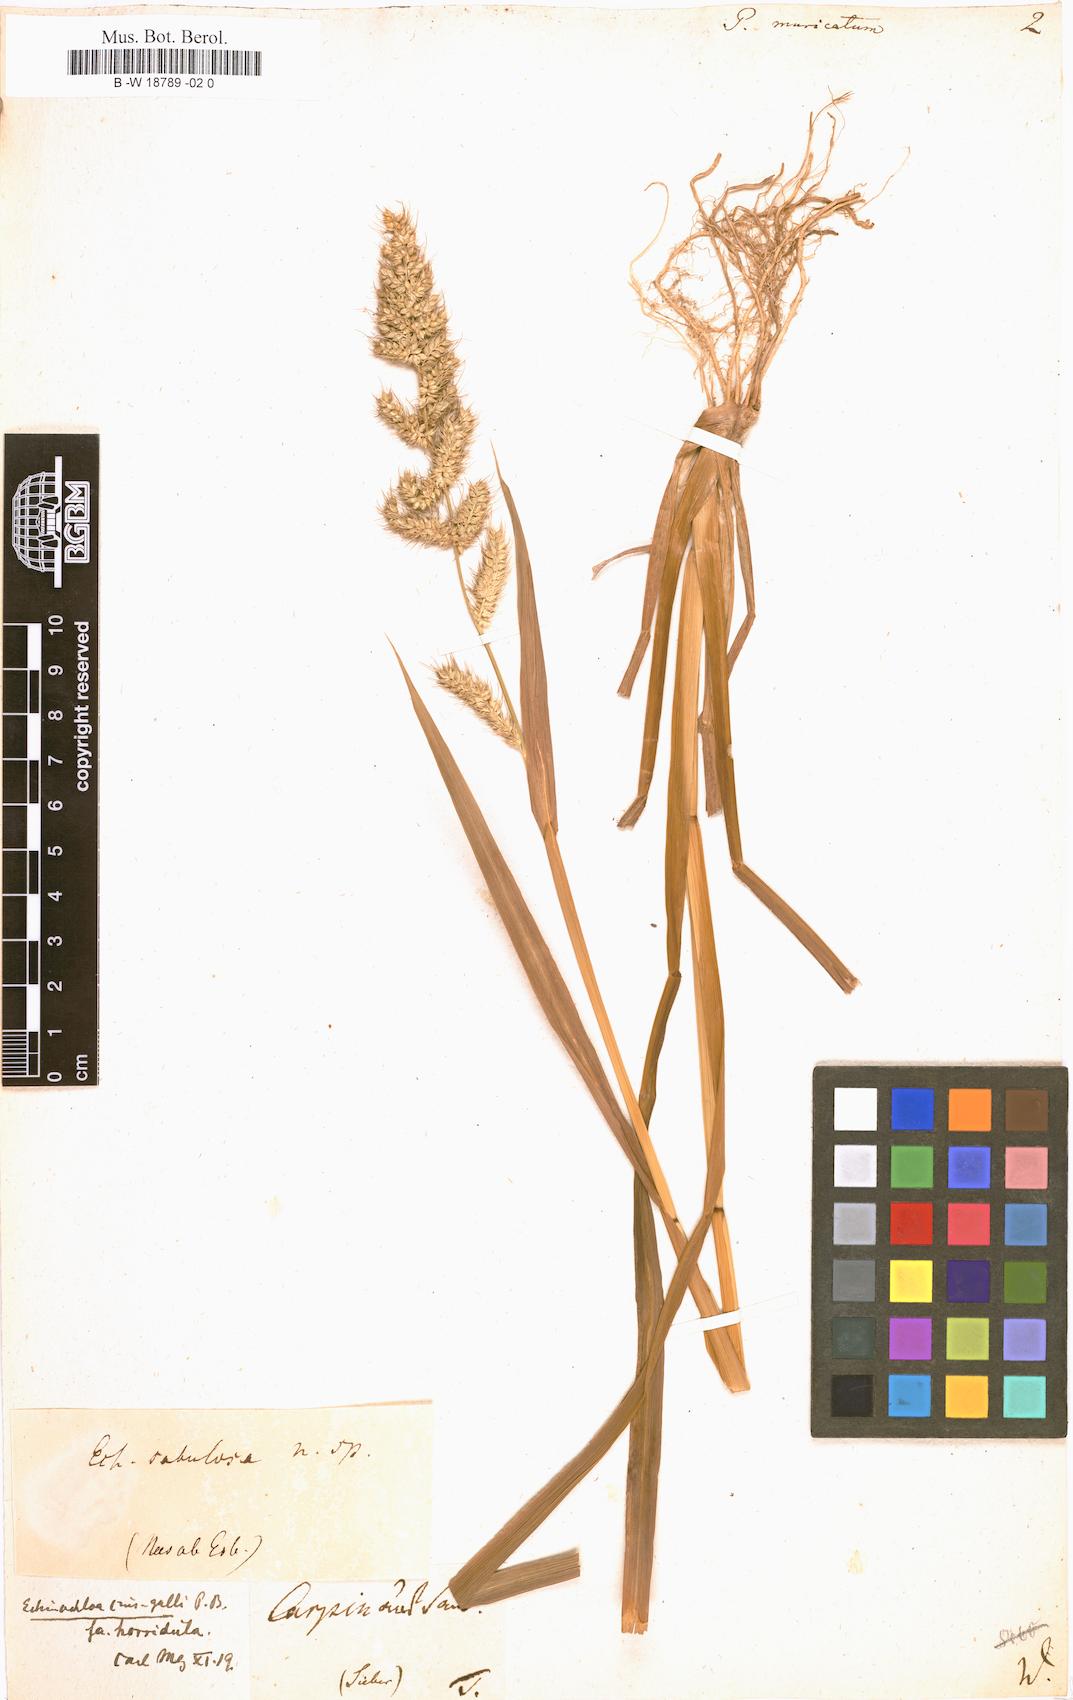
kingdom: Plantae
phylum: Tracheophyta
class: Liliopsida
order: Poales
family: Poaceae
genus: Cyrtococcum
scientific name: Cyrtococcum patens
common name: Broad-leaved bowgrass
